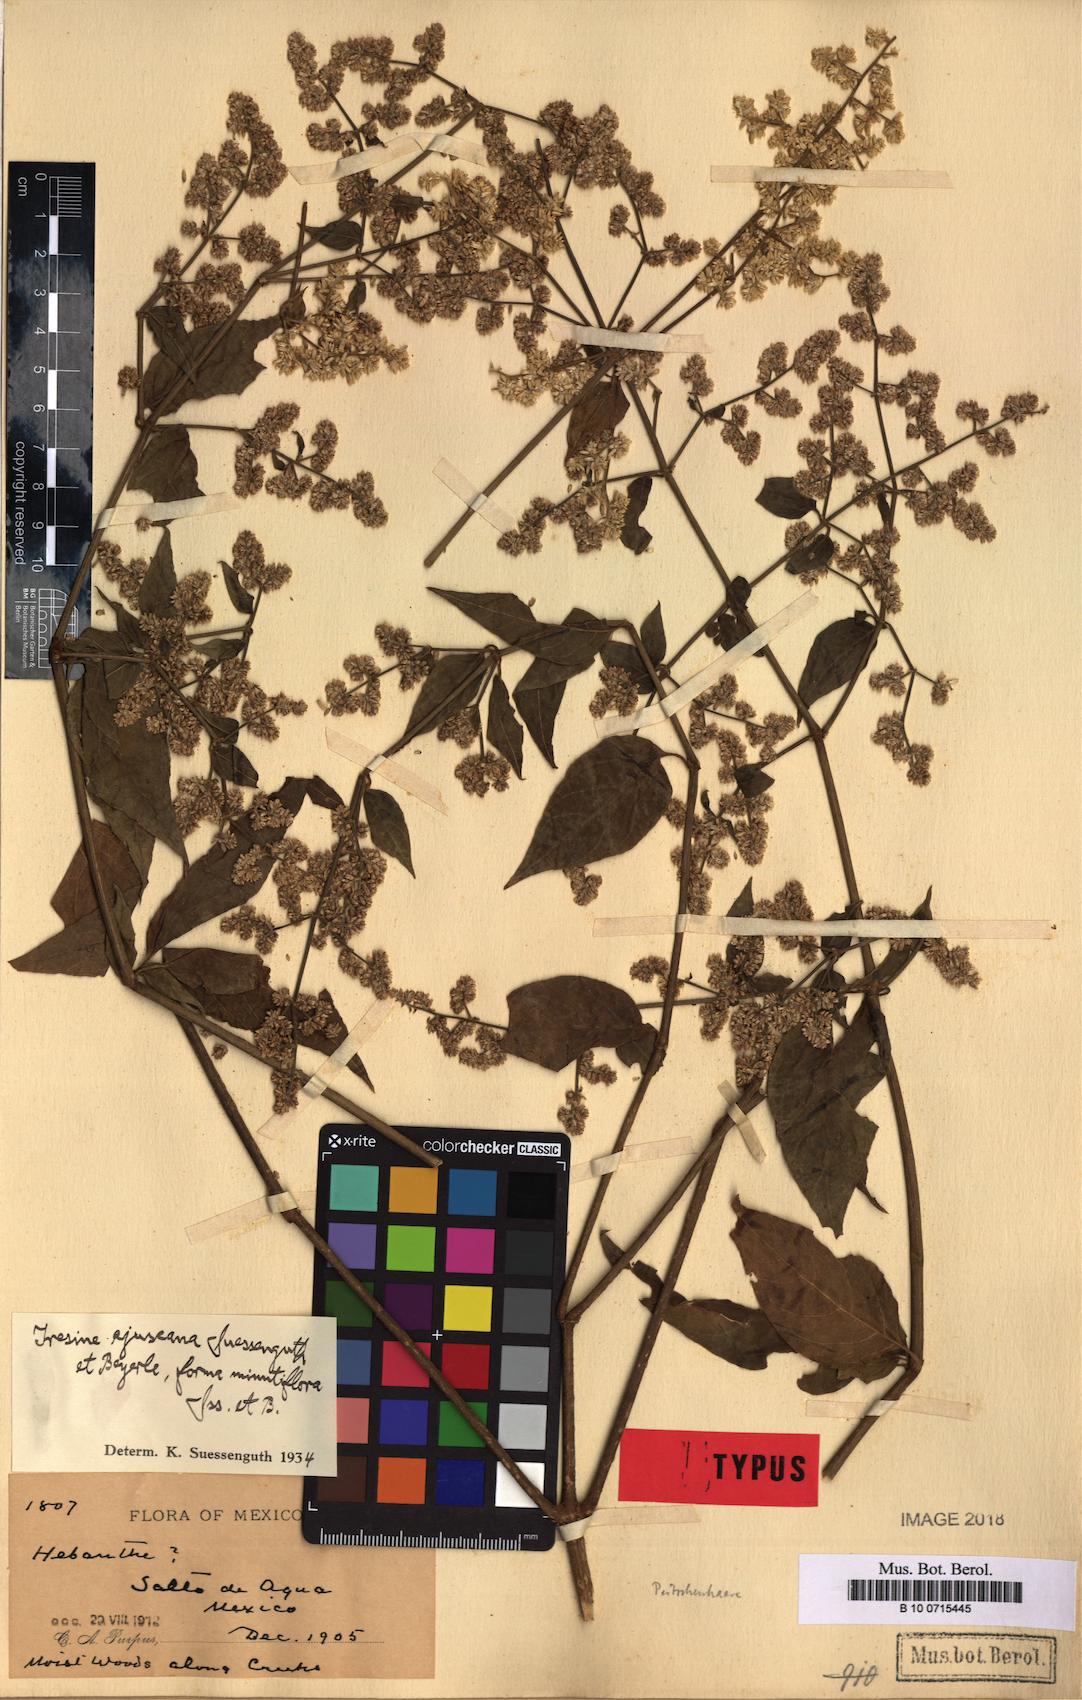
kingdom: Plantae
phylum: Tracheophyta
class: Magnoliopsida
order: Caryophyllales
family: Amaranthaceae
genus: Iresine
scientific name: Iresine ajuscana
